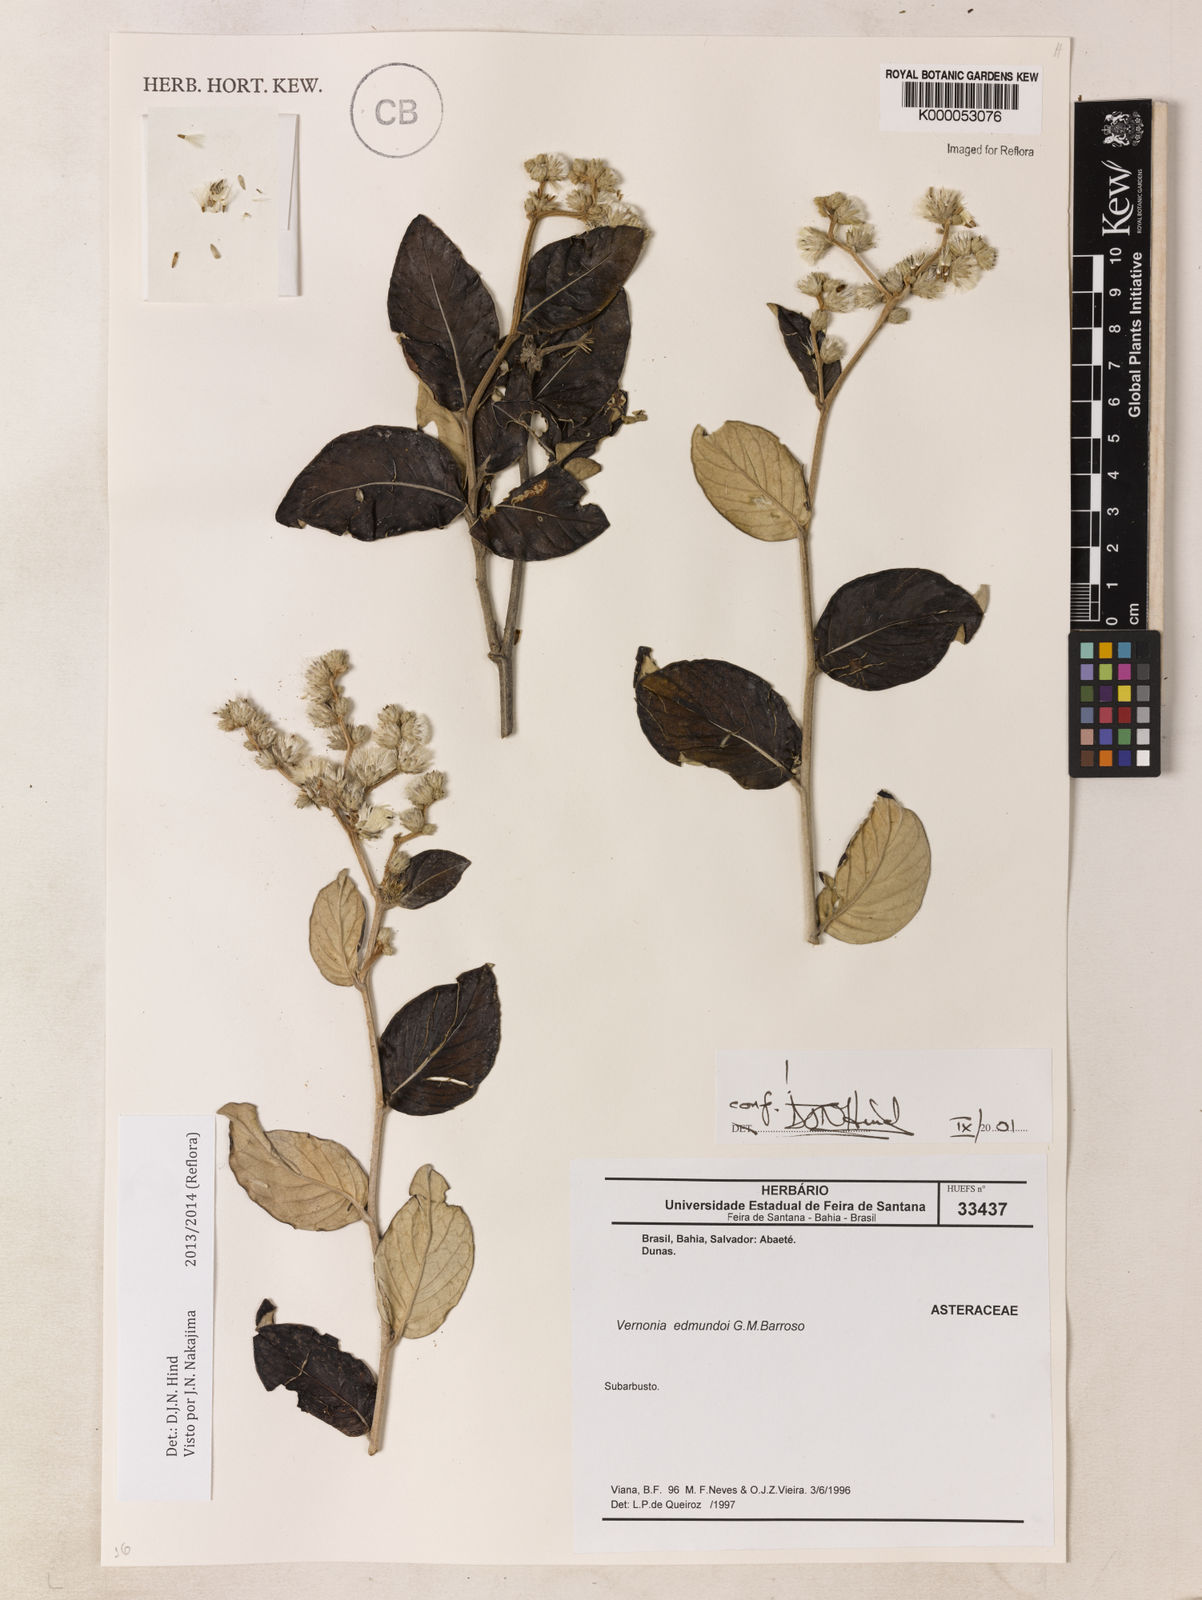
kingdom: Plantae
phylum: Tracheophyta
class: Magnoliopsida
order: Asterales
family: Asteraceae
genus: Lepidaploa
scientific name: Lepidaploa edmundoi
